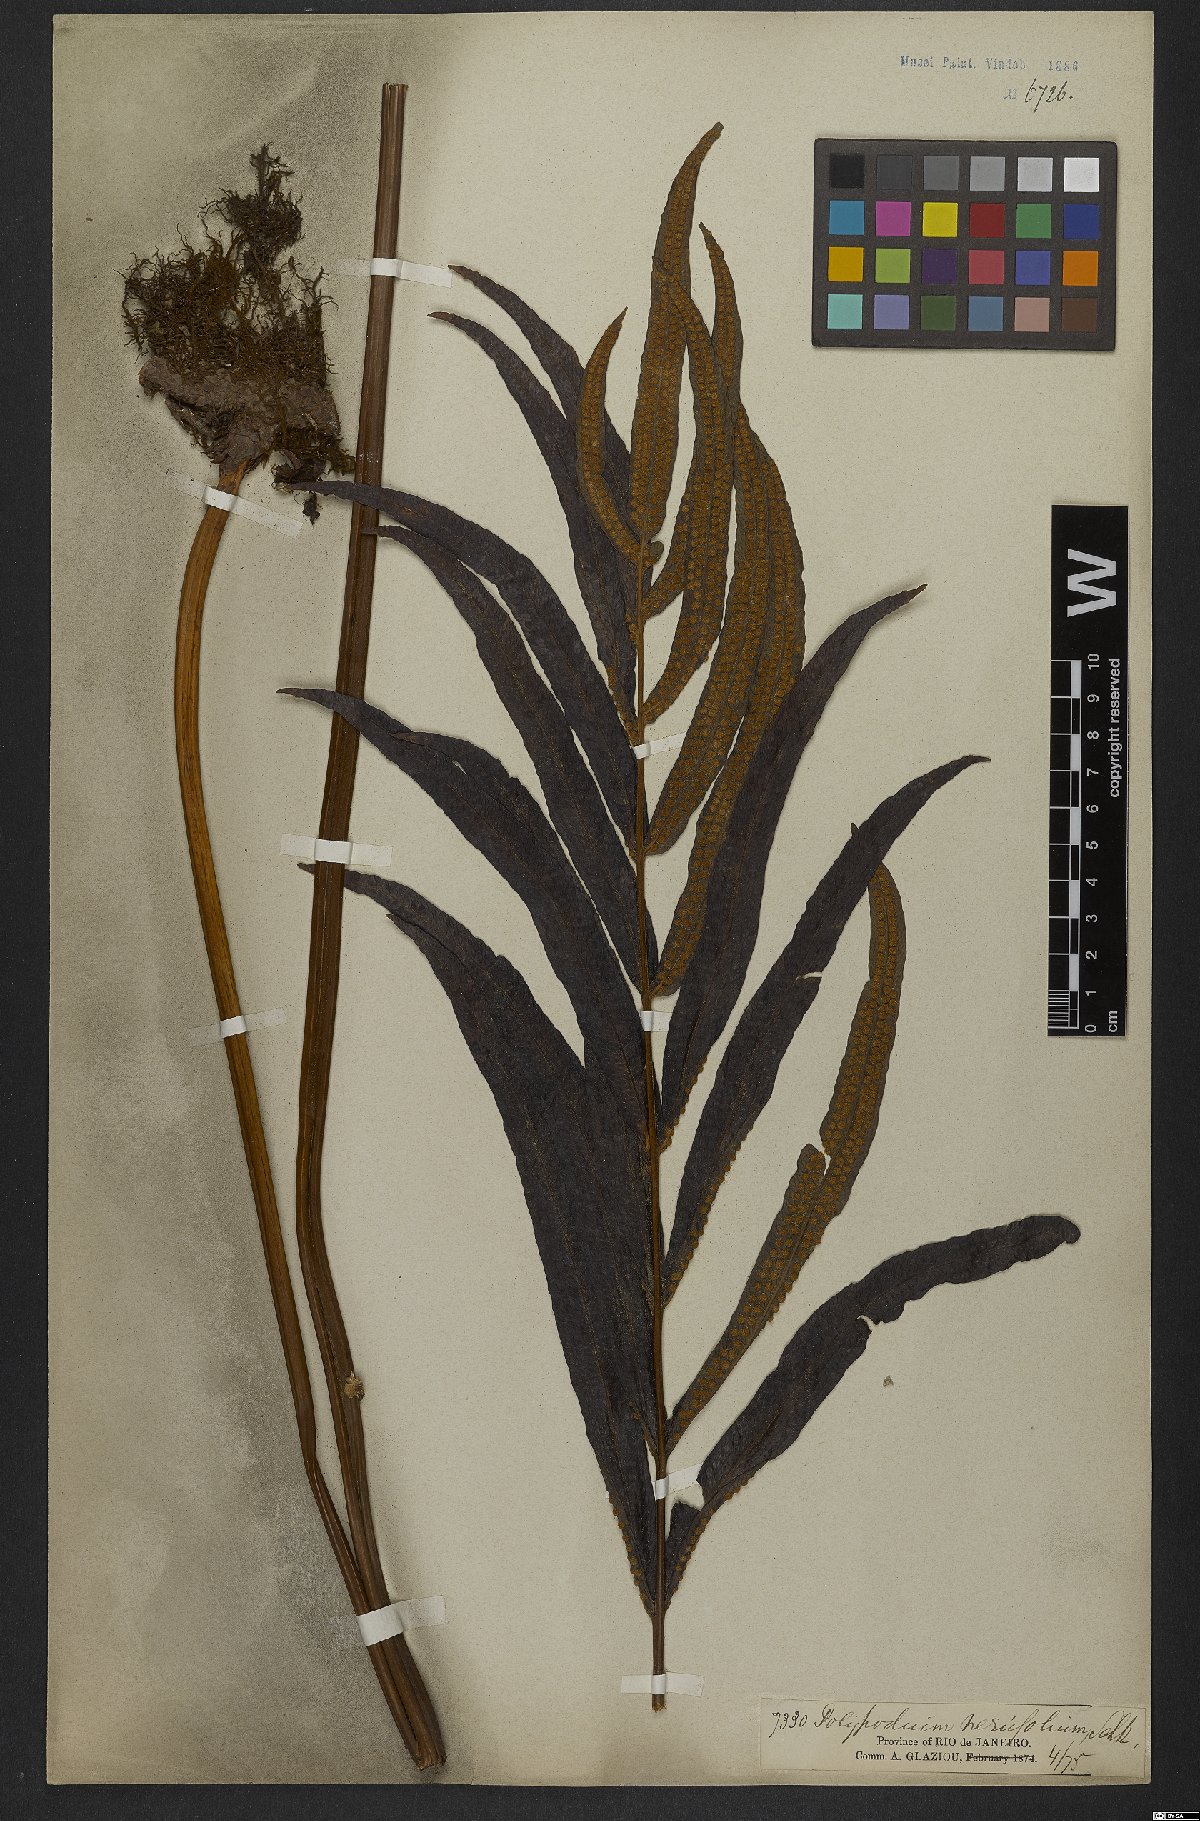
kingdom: Plantae
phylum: Tracheophyta
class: Polypodiopsida
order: Polypodiales
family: Polypodiaceae
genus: Serpocaulon
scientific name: Serpocaulon triseriale
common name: Angle-vein fern
